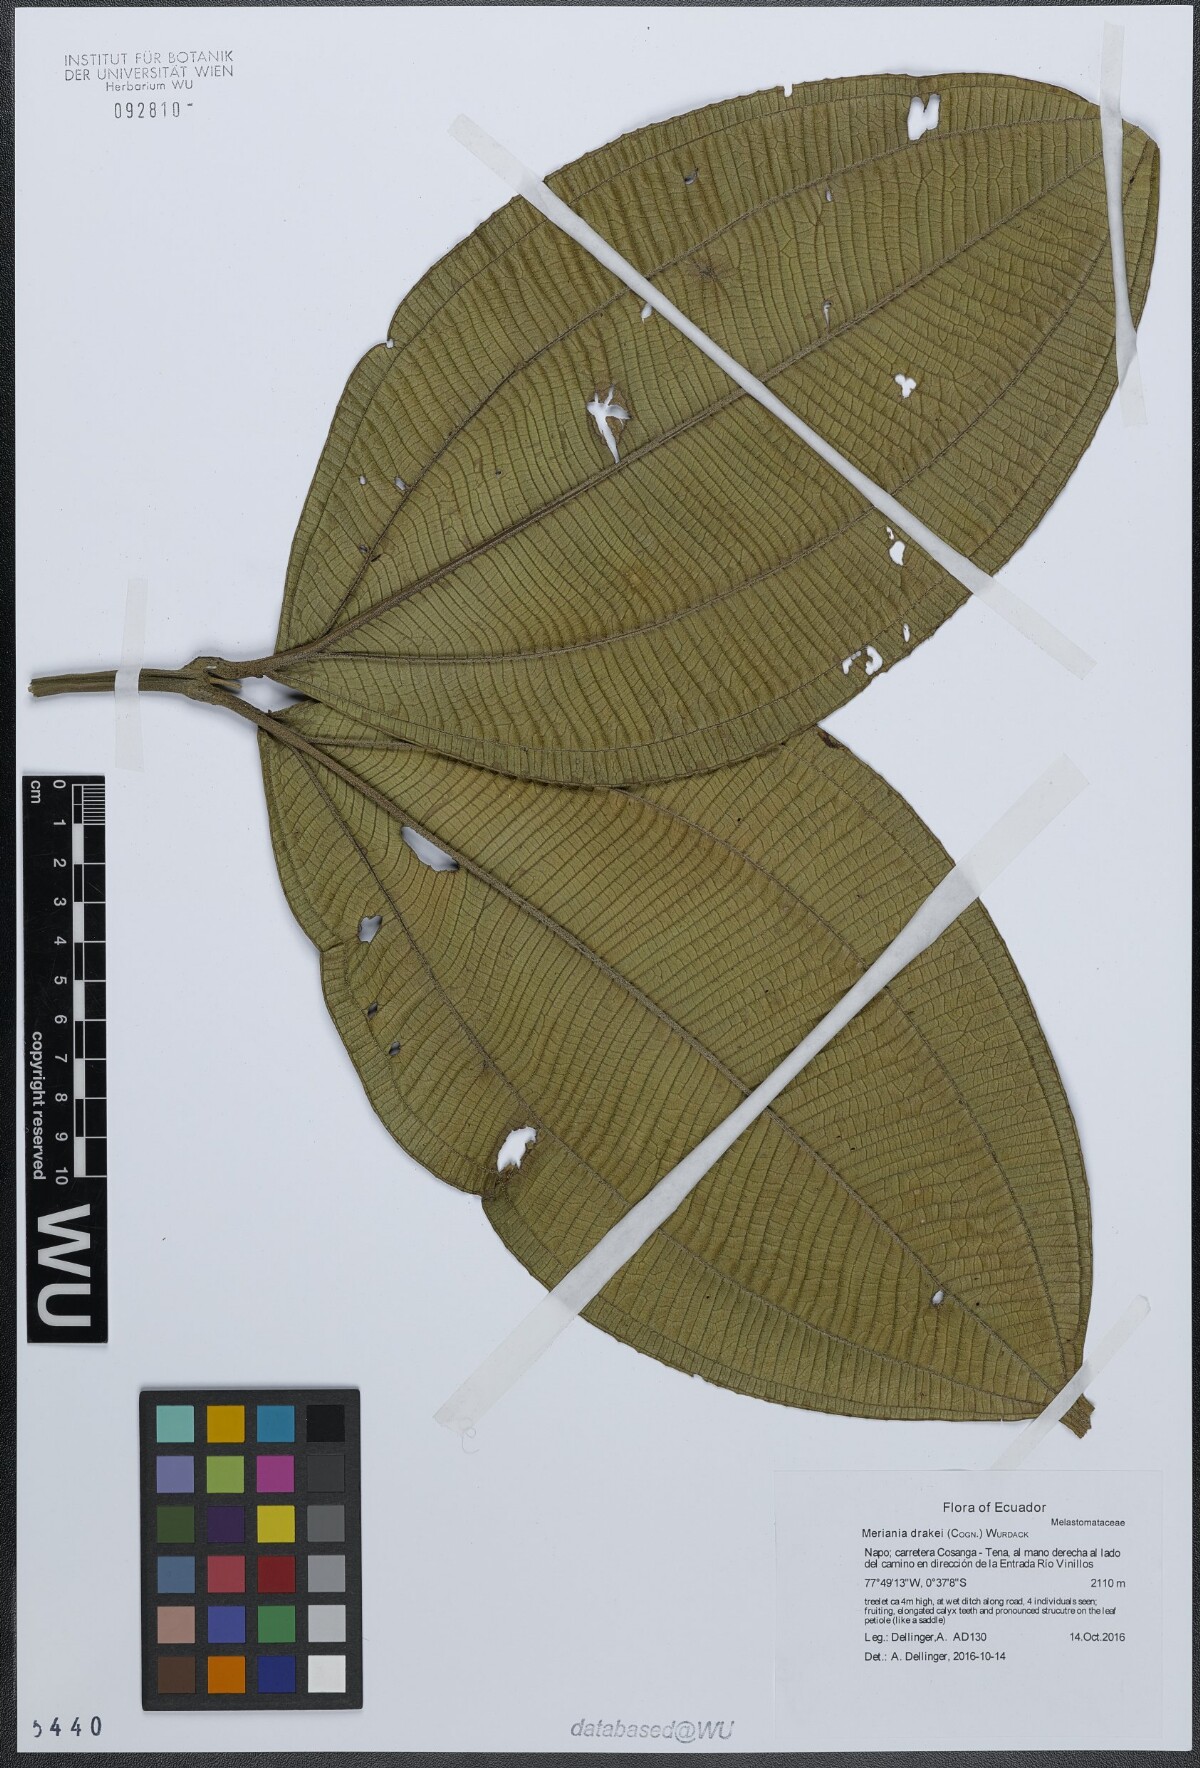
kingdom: Plantae
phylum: Tracheophyta
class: Magnoliopsida
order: Myrtales
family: Melastomataceae
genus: Meriania
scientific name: Meriania drakei
